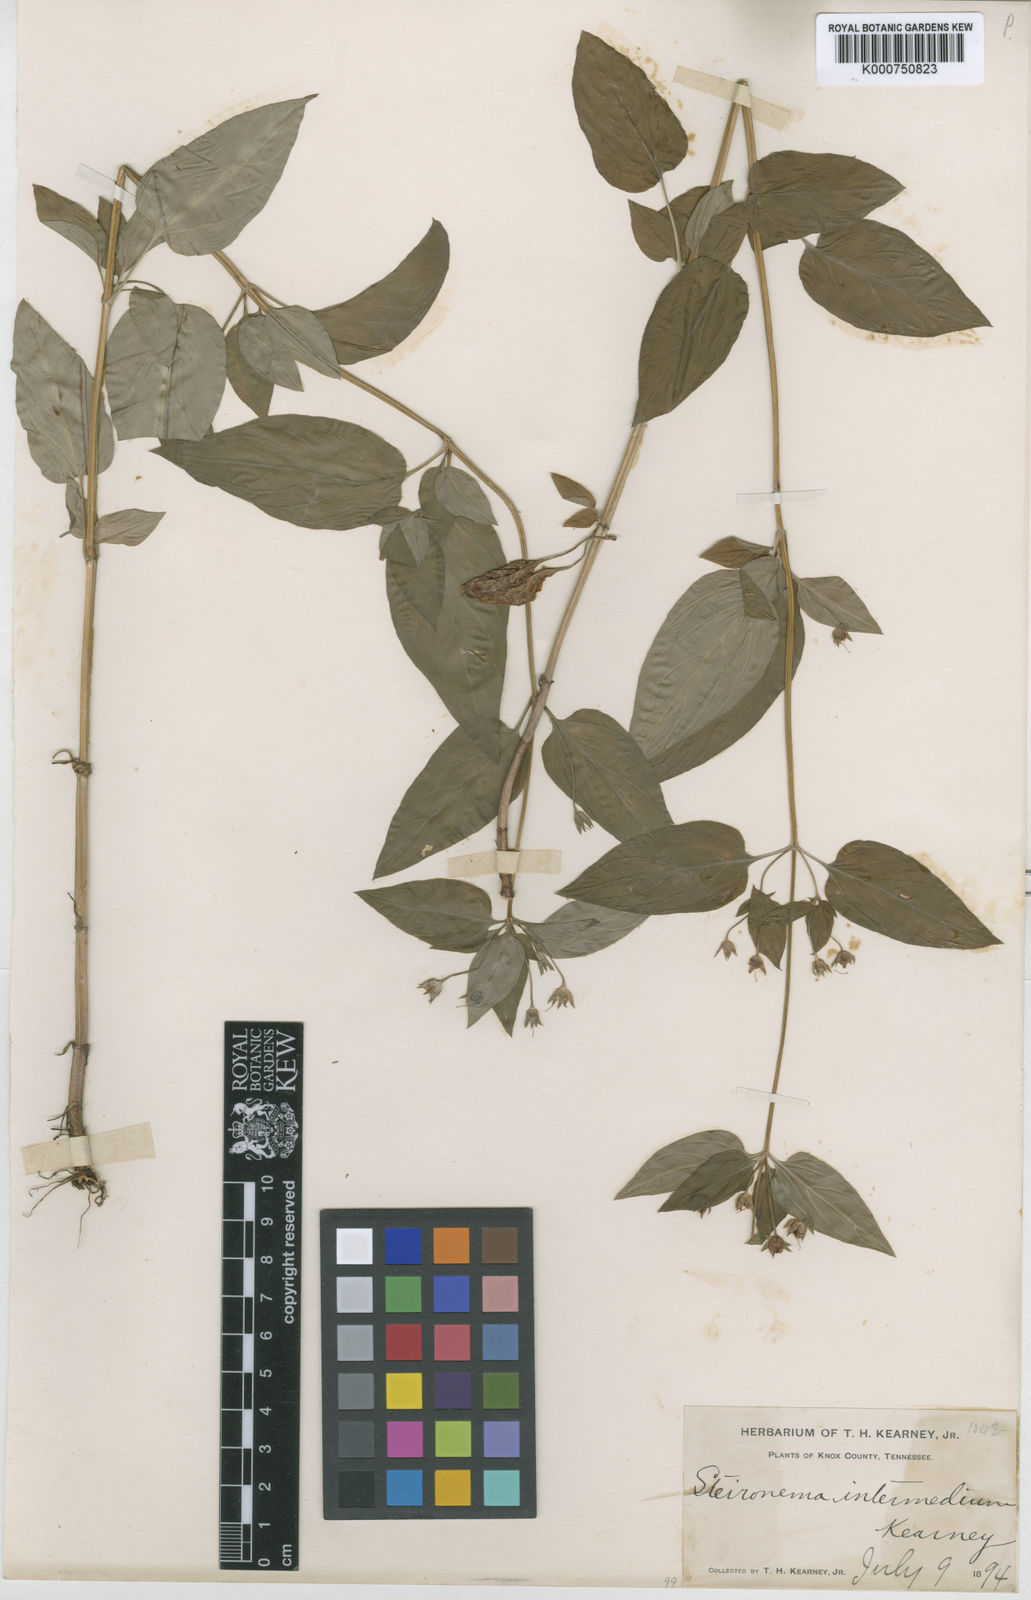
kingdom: Plantae
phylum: Tracheophyta
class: Magnoliopsida
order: Ericales
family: Primulaceae
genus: Lysimachia
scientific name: Lysimachia dubia
